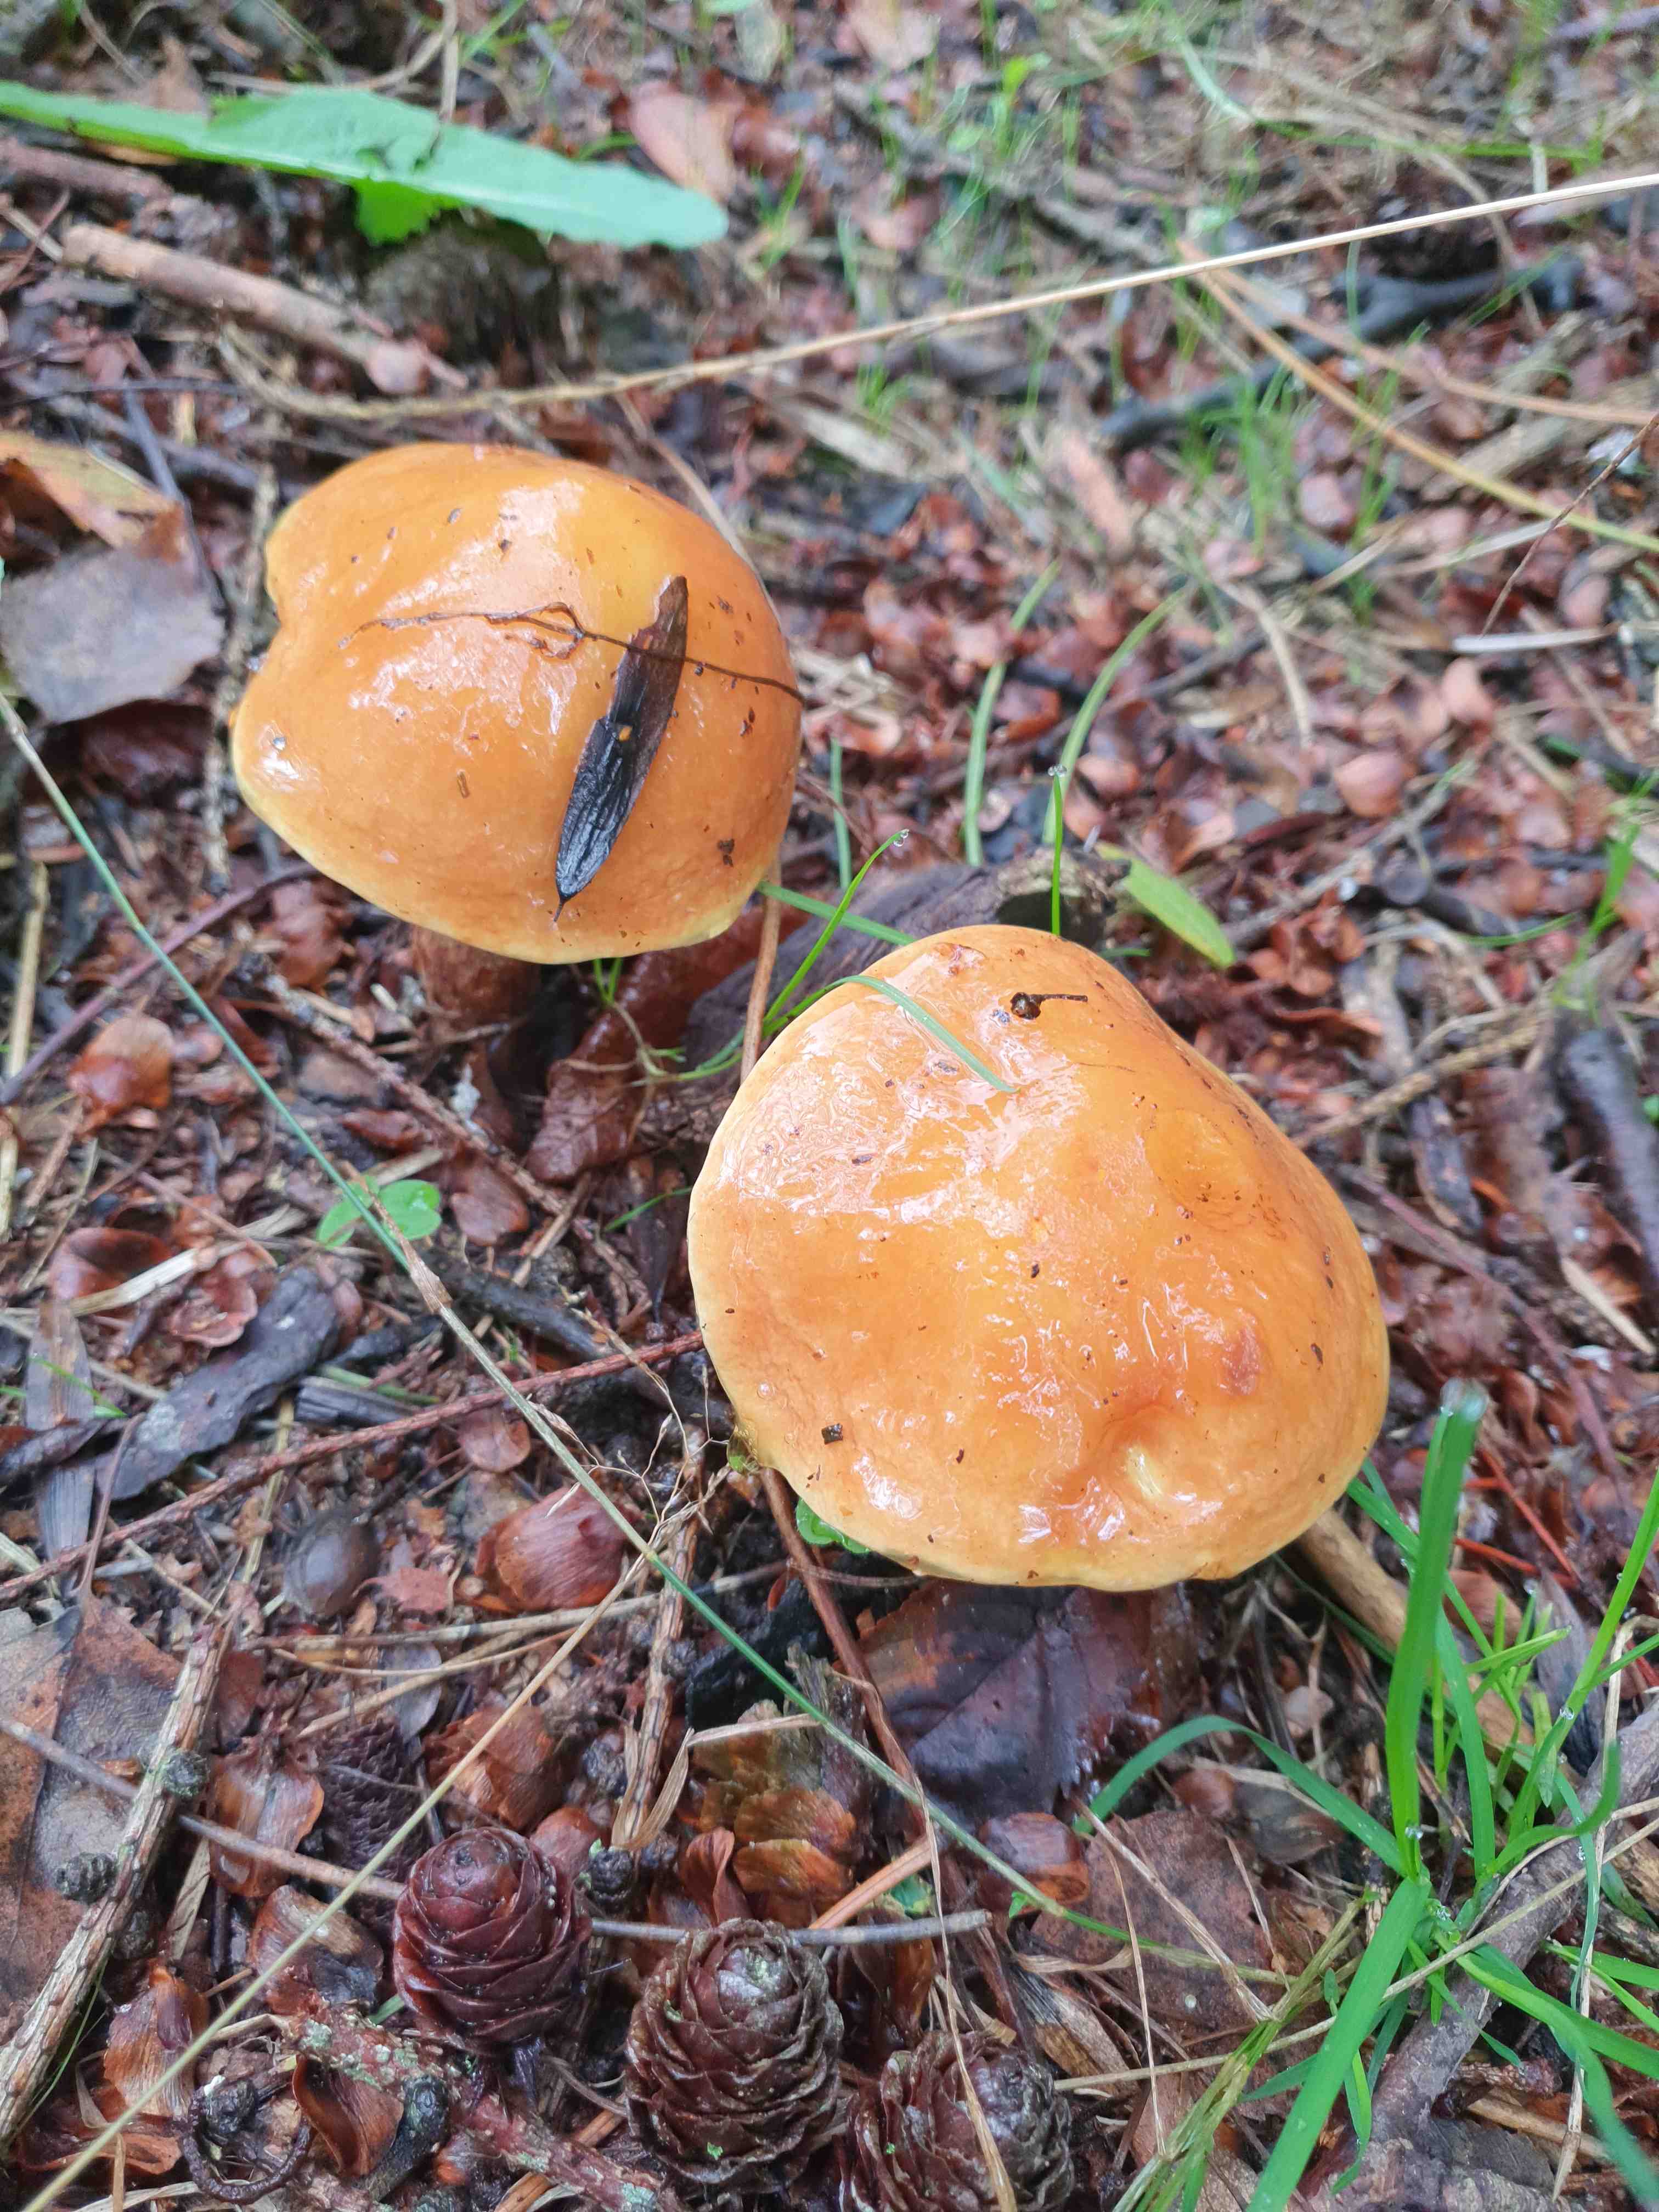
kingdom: Fungi
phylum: Basidiomycota
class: Agaricomycetes
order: Boletales
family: Suillaceae
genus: Suillus
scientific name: Suillus grevillei
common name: lærke-slimrørhat
